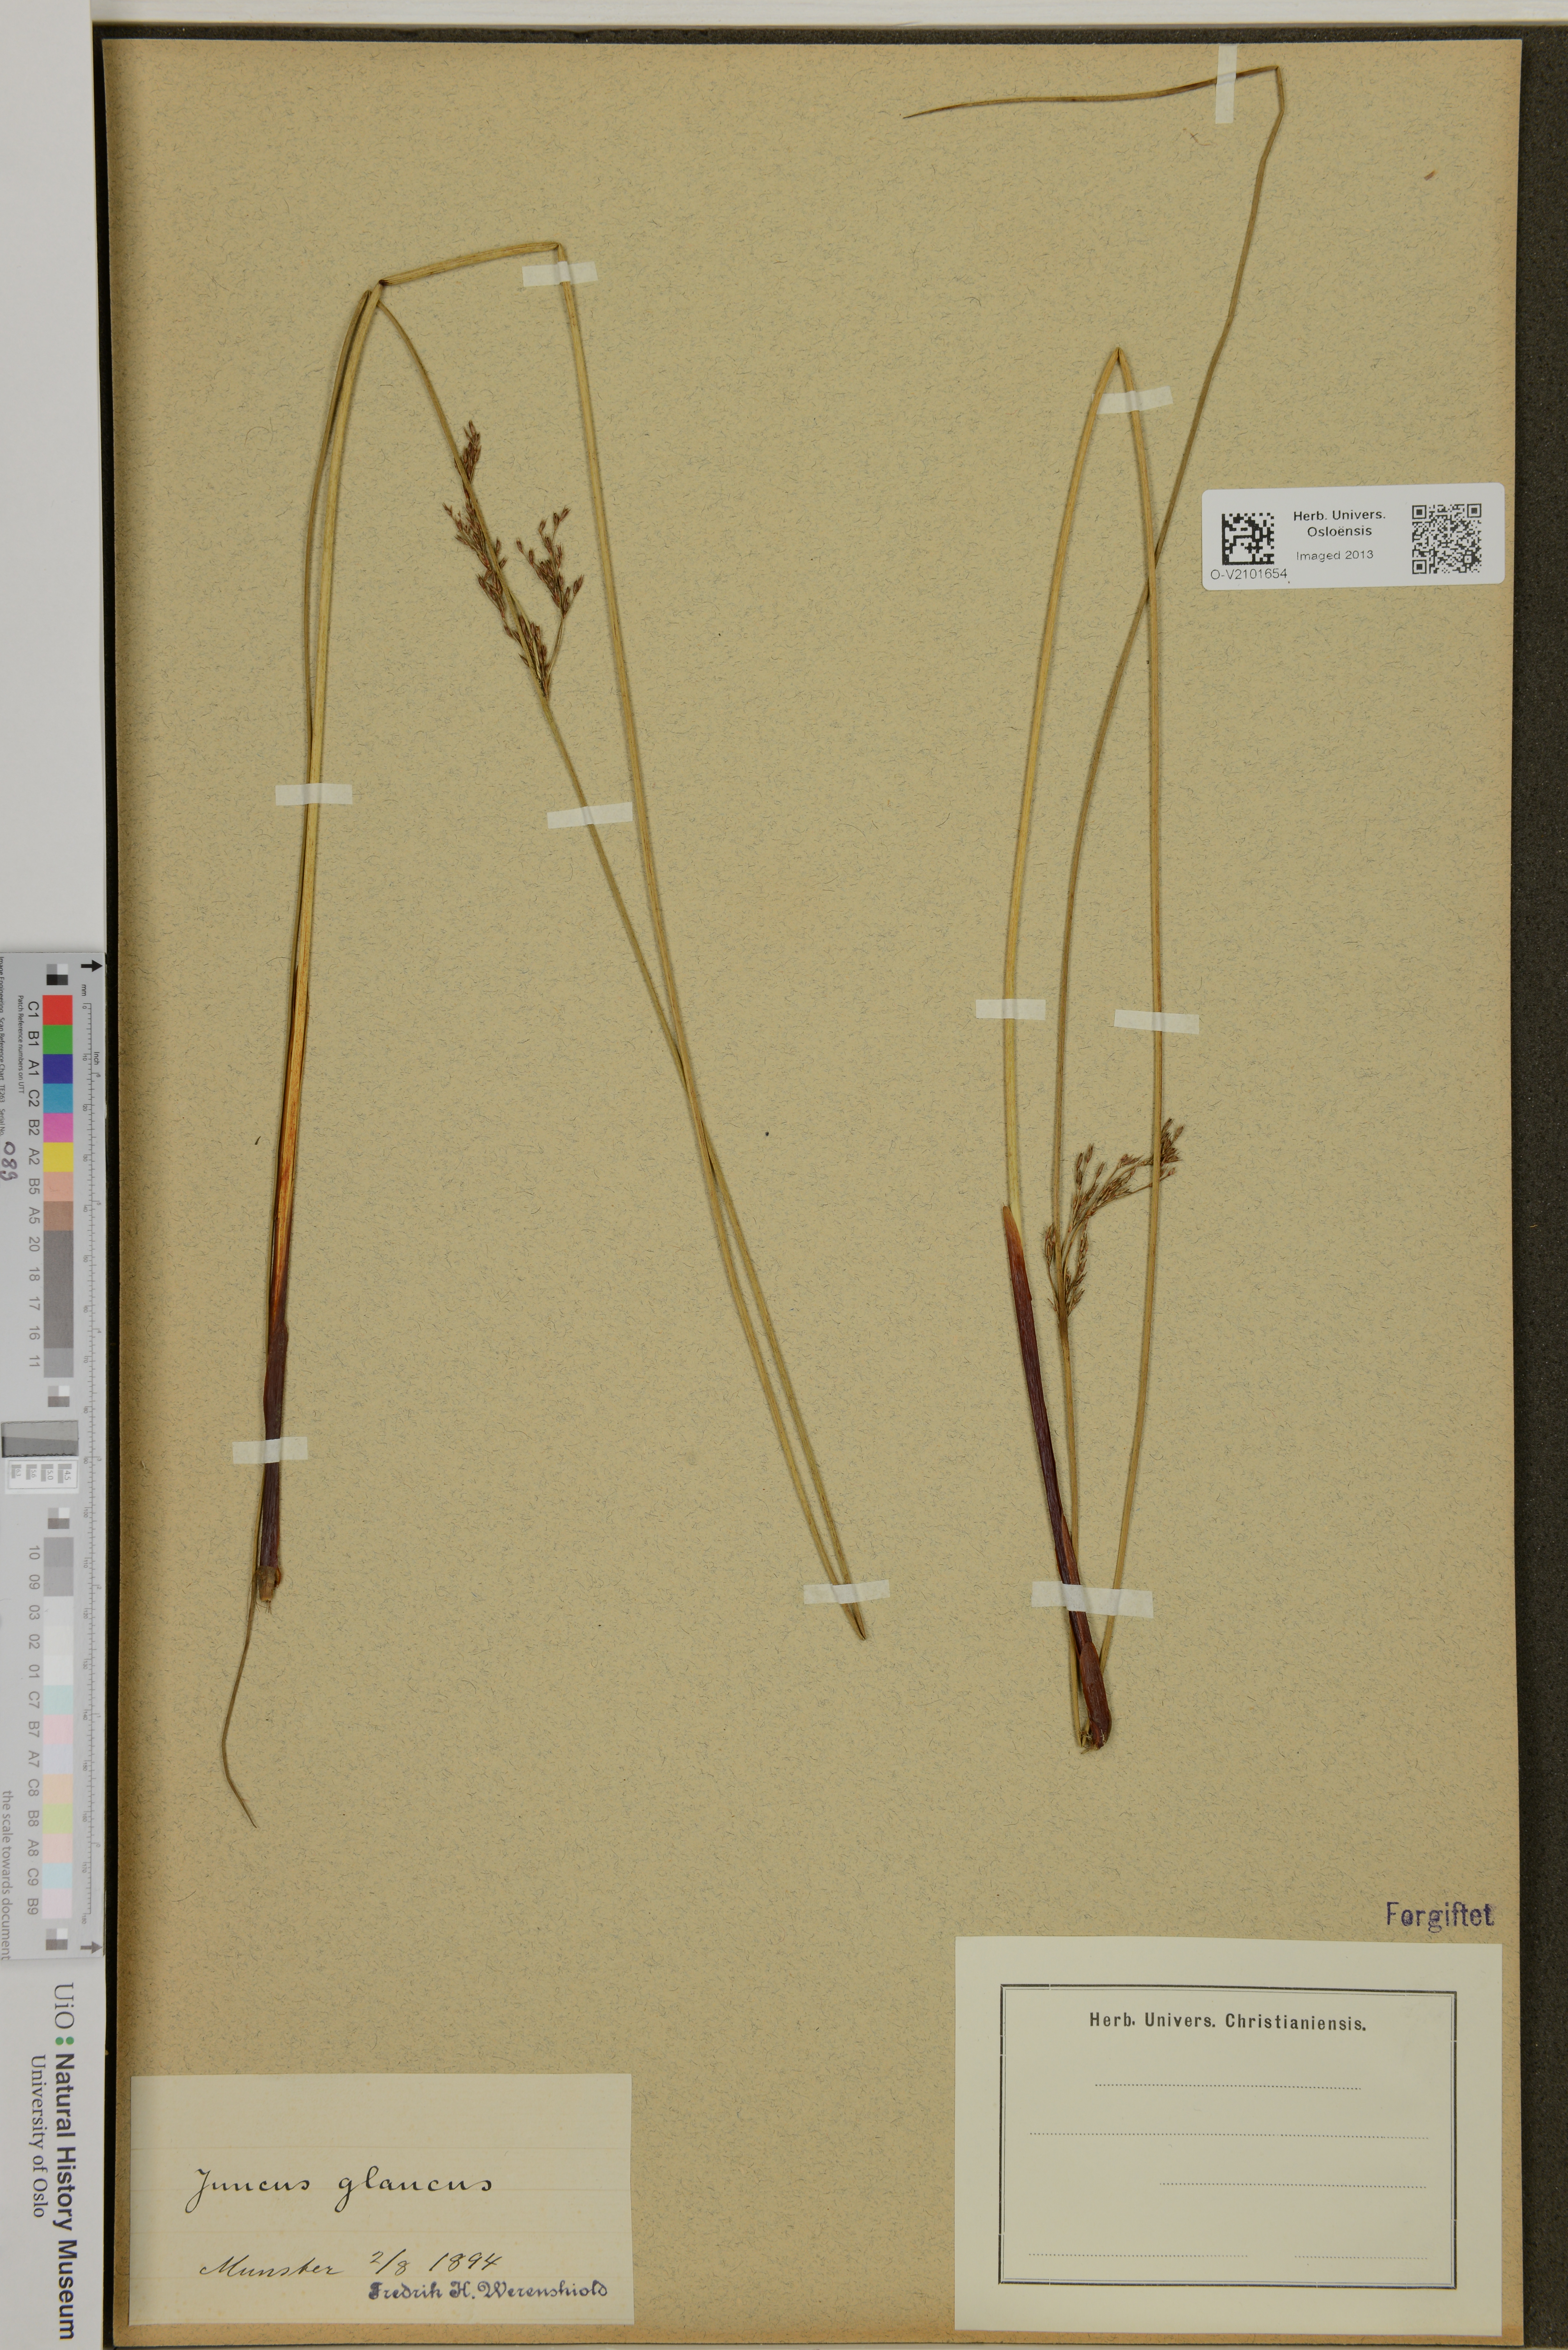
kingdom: Plantae
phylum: Tracheophyta
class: Liliopsida
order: Poales
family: Juncaceae
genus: Juncus
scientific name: Juncus inflexus
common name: Hard rush
